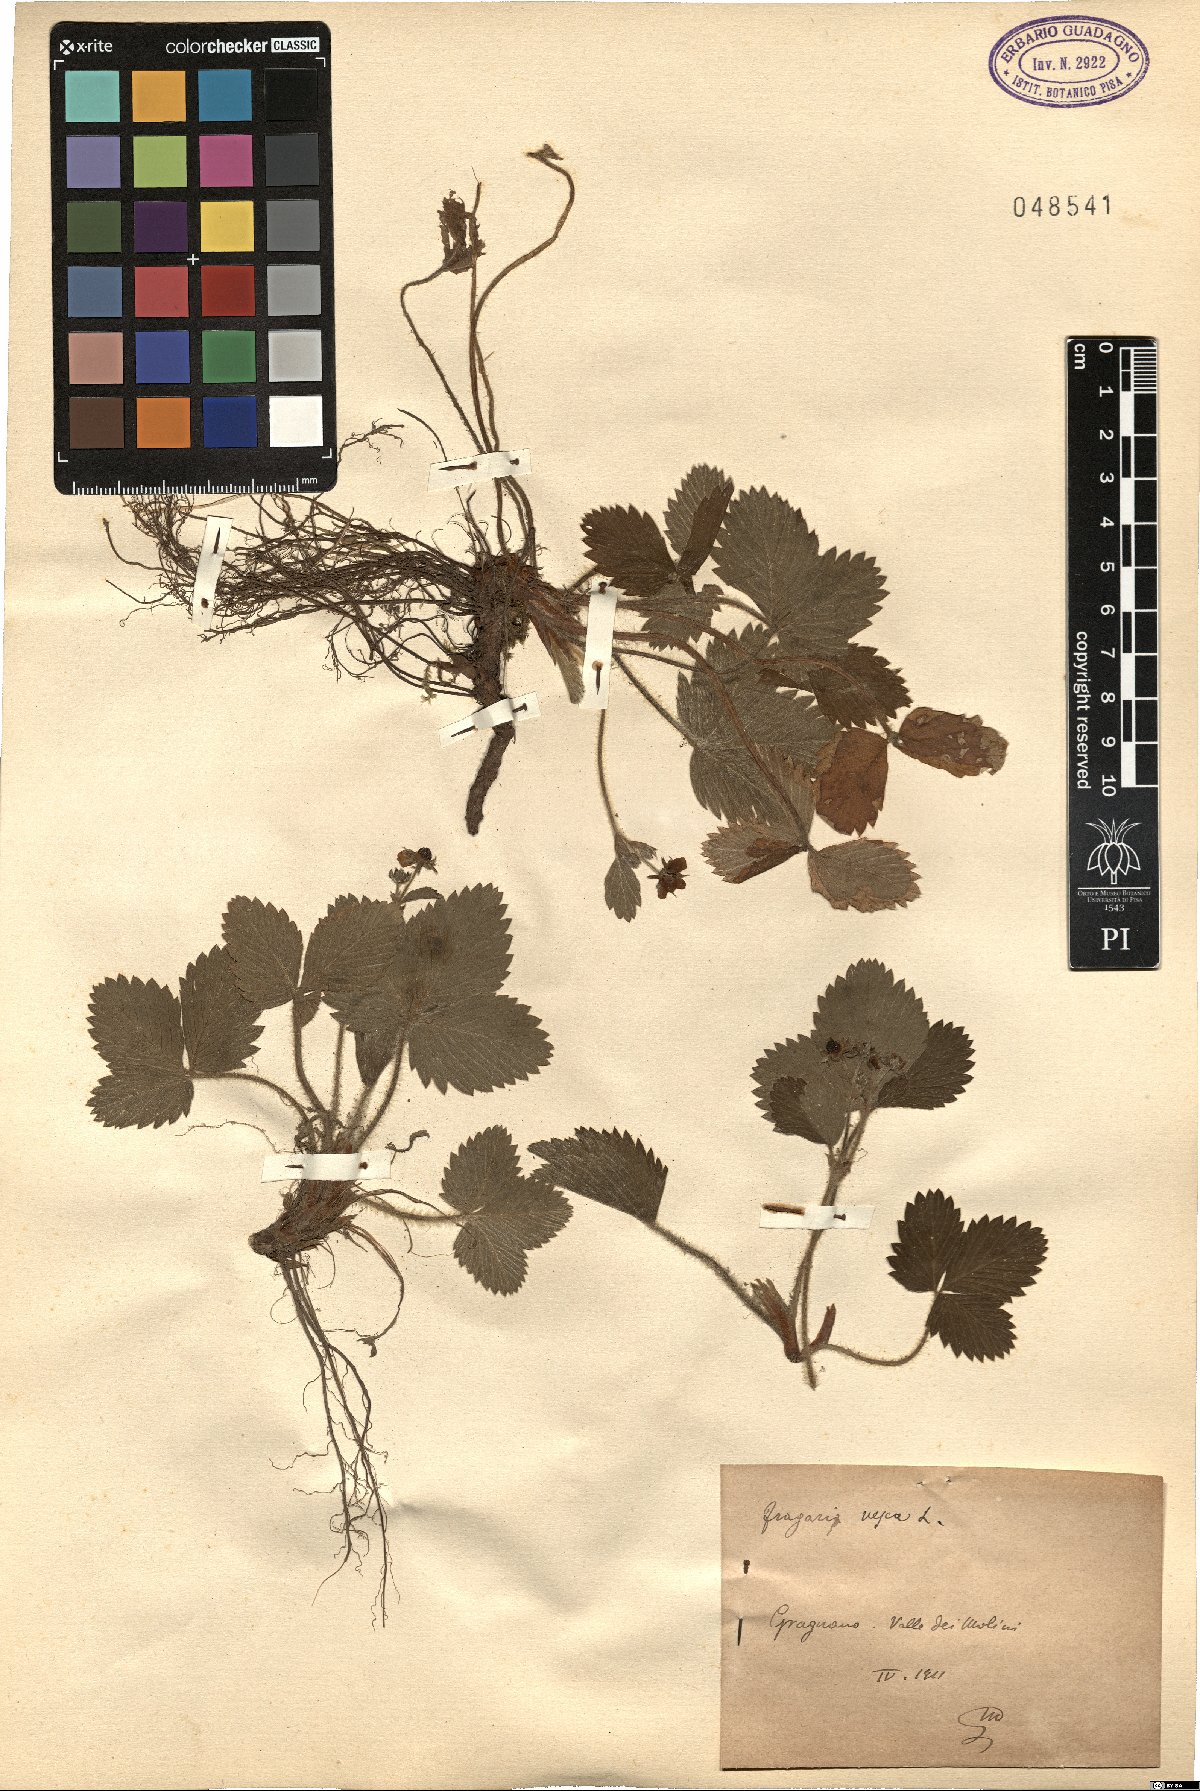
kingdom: Plantae
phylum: Tracheophyta
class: Magnoliopsida
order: Rosales
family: Rosaceae
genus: Fragaria
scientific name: Fragaria vesca
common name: Wild strawberry
